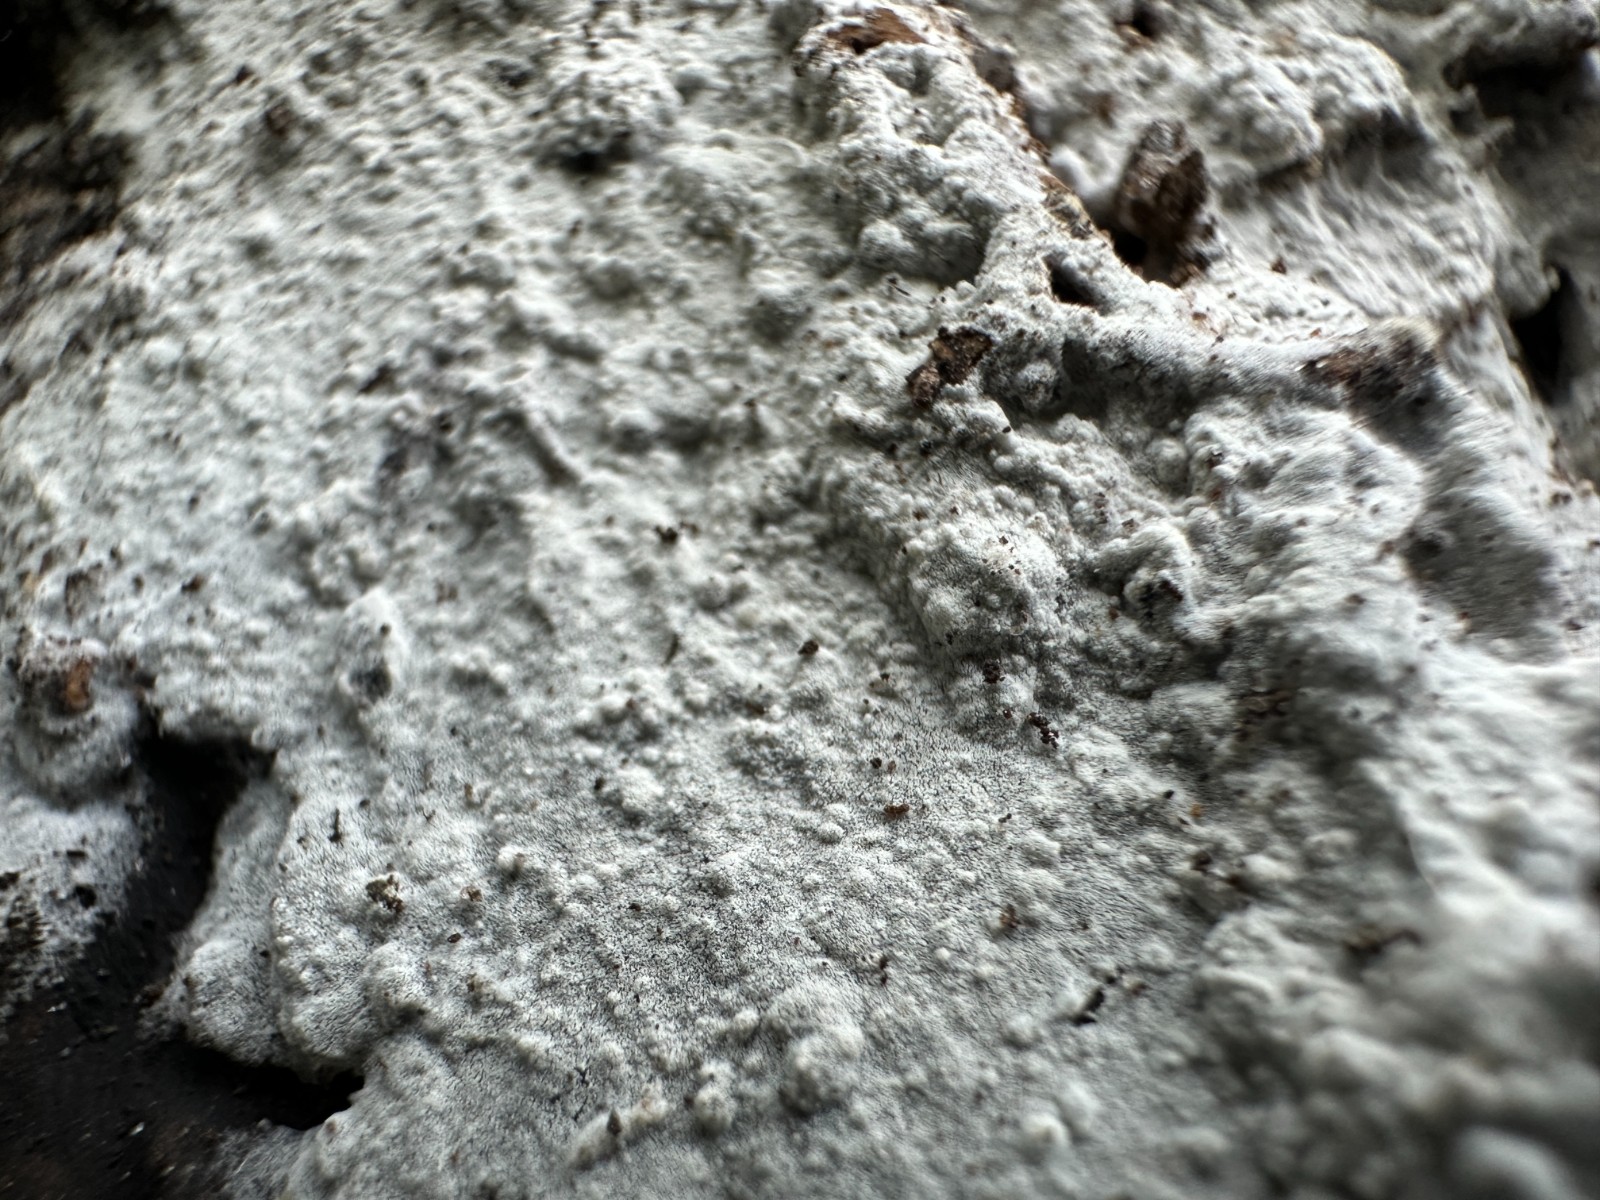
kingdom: Fungi
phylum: Basidiomycota
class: Agaricomycetes
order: Corticiales
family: Corticiaceae
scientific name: Corticiaceae
